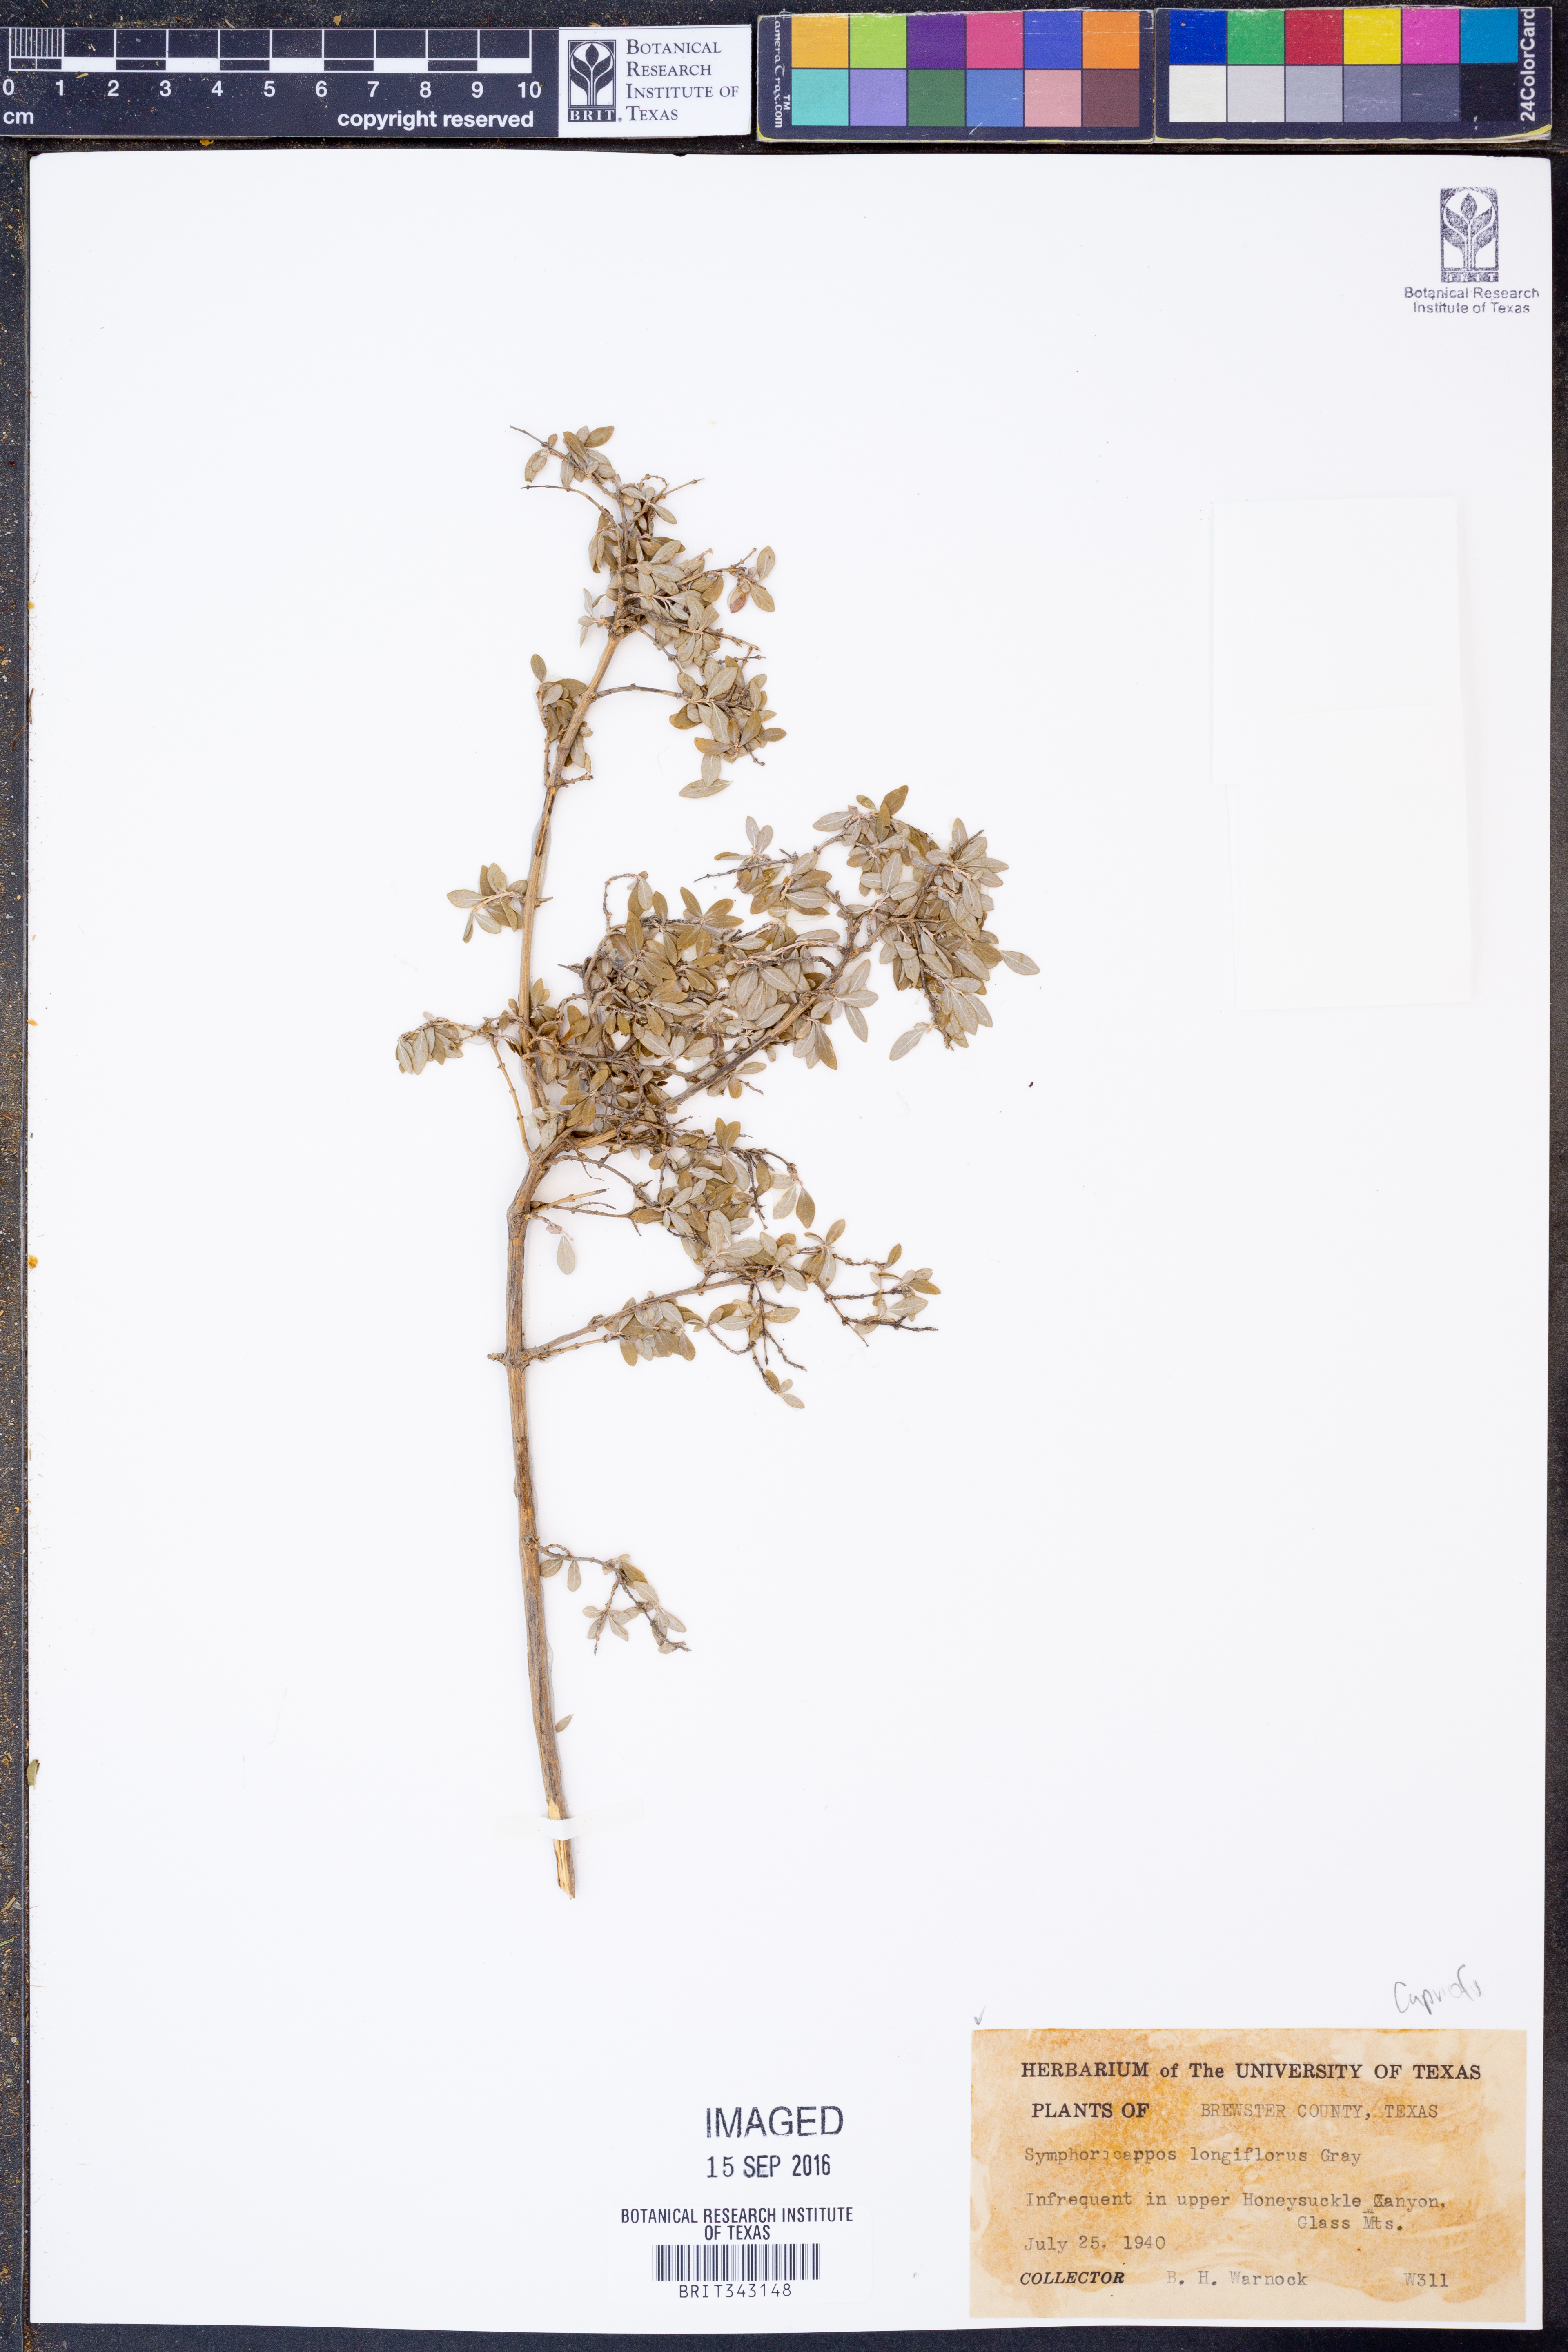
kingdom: Plantae
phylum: Tracheophyta
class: Magnoliopsida
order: Dipsacales
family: Caprifoliaceae
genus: Symphoricarpos
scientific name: Symphoricarpos longiflorus
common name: Fragrant snowberry
